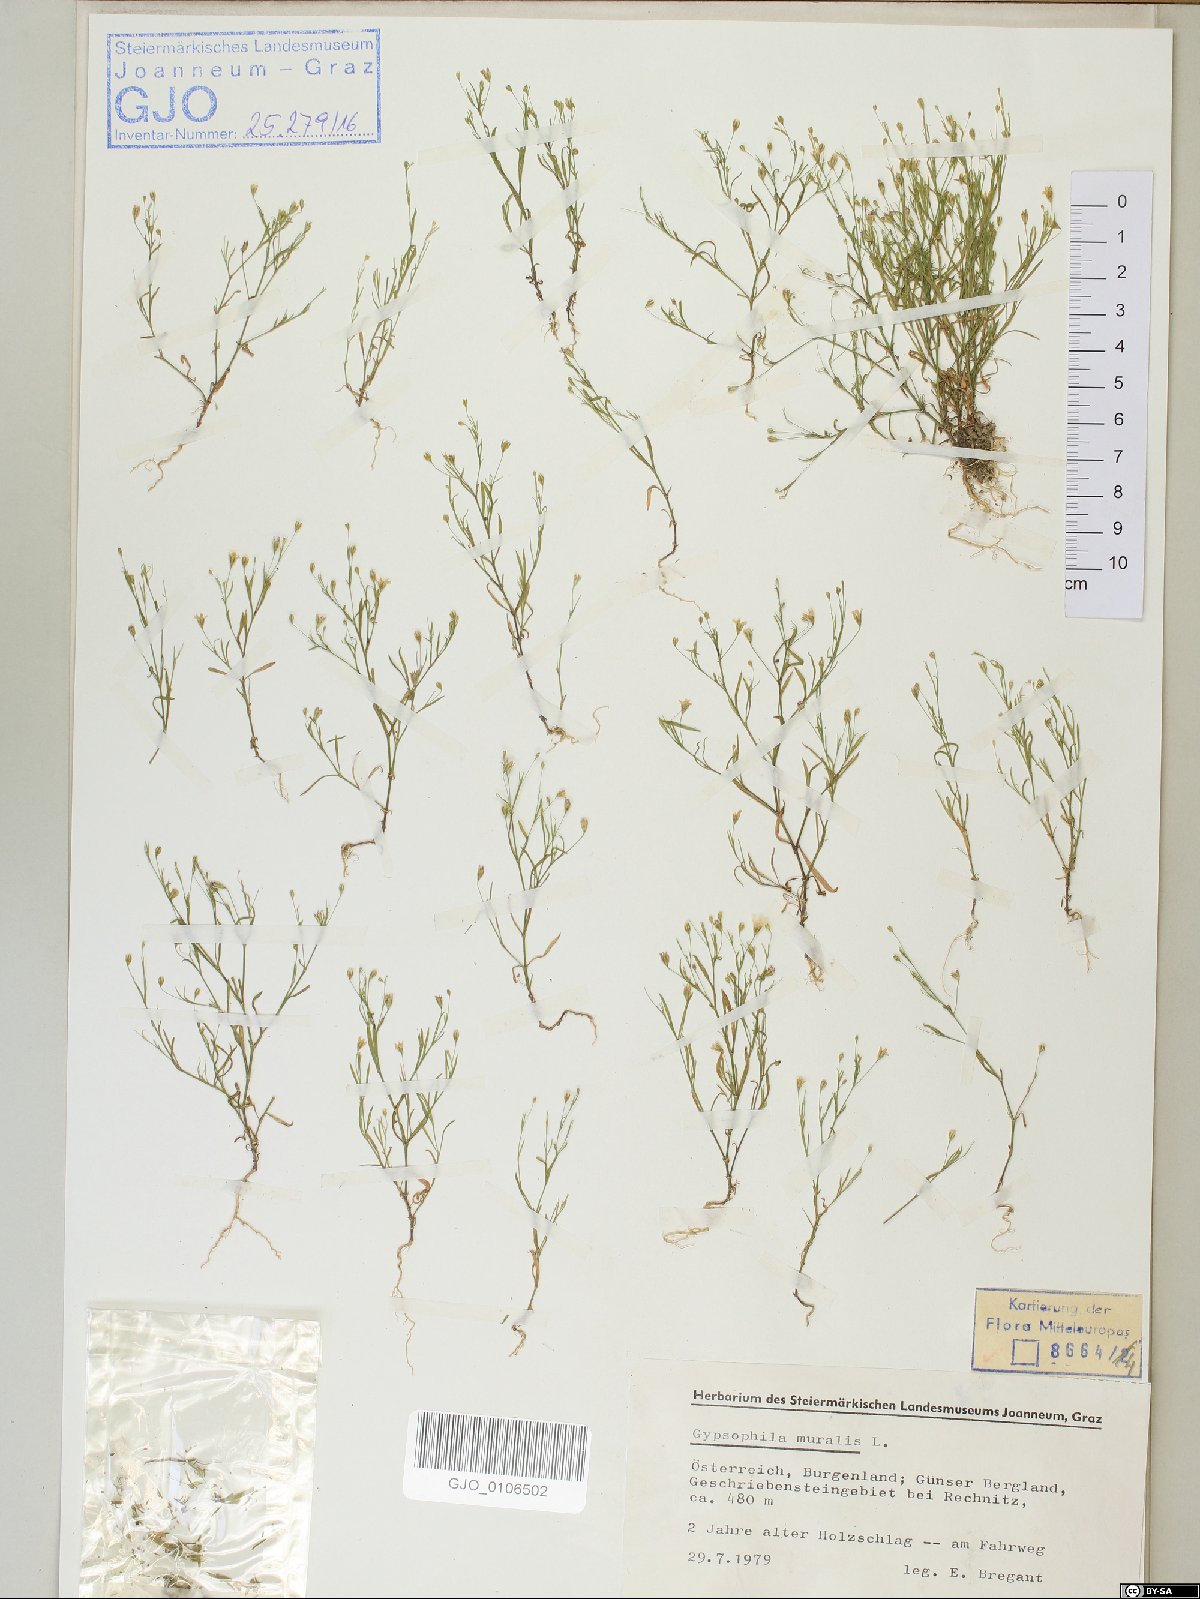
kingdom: Plantae
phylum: Tracheophyta
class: Magnoliopsida
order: Caryophyllales
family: Caryophyllaceae
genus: Psammophiliella
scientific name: Psammophiliella muralis
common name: Cushion baby's-breath
